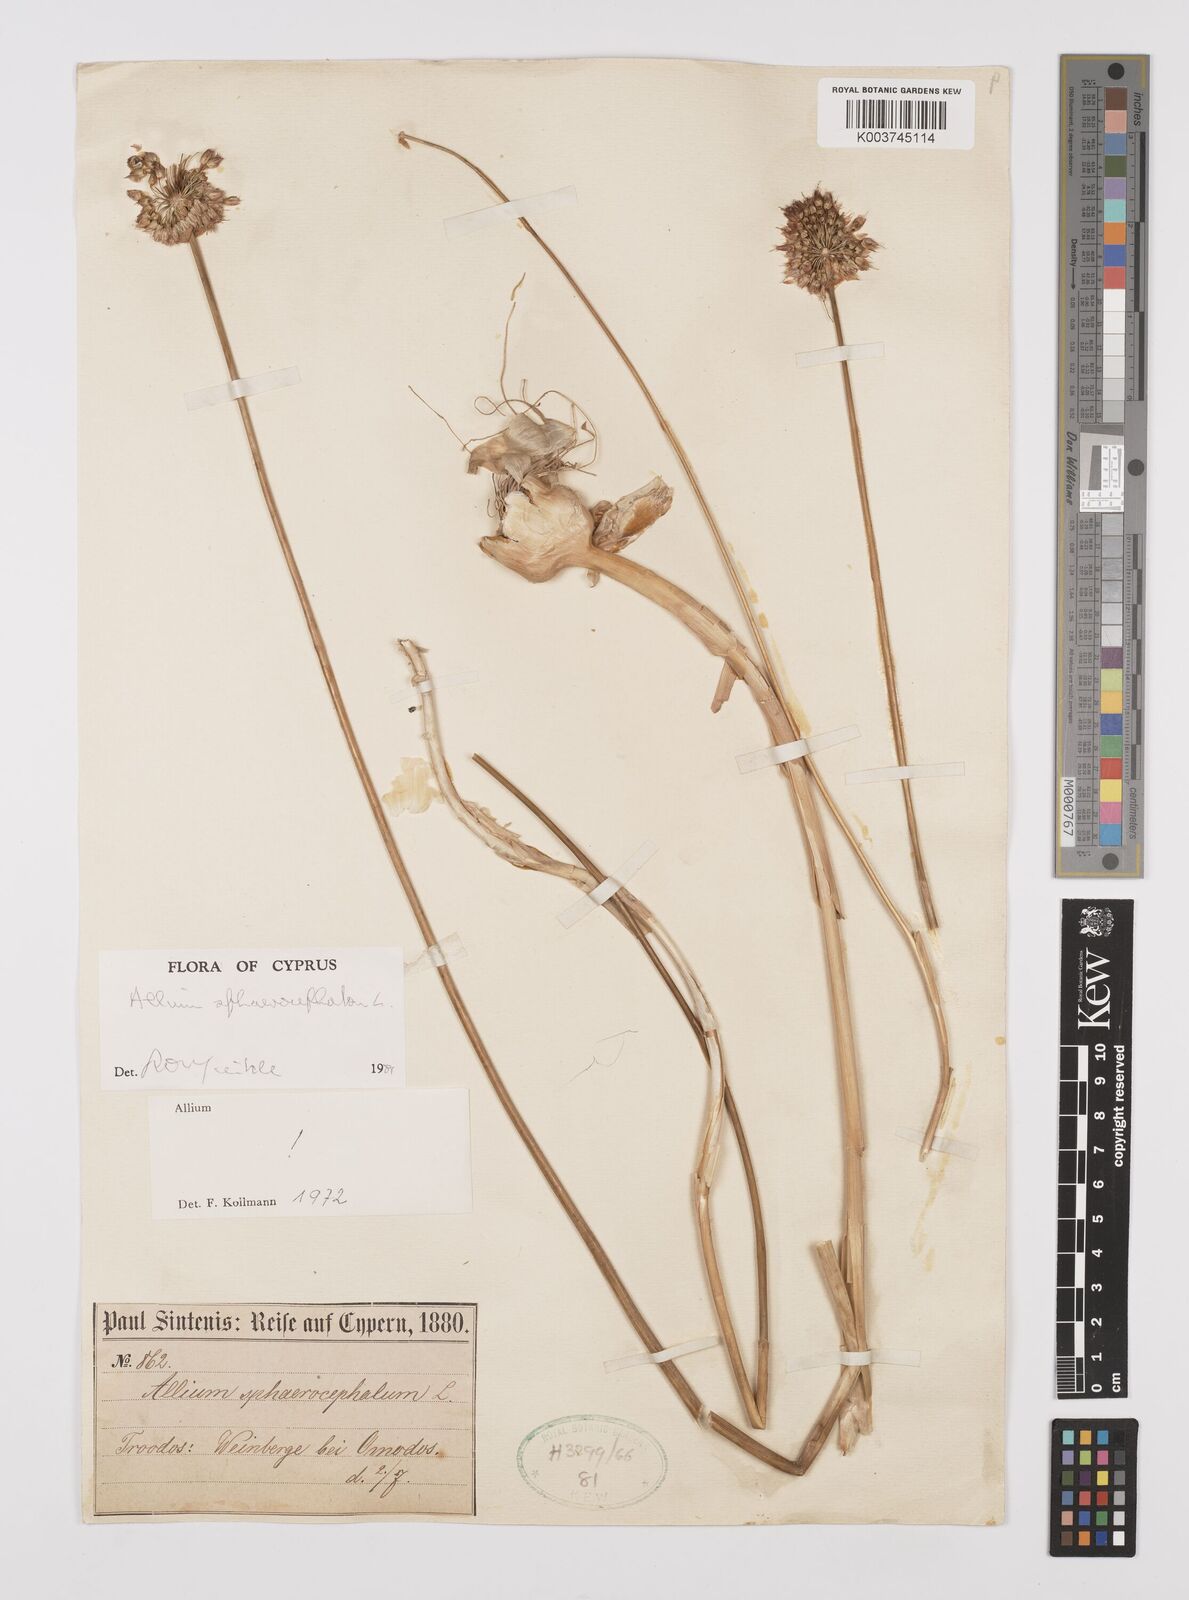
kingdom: Plantae
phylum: Tracheophyta
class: Liliopsida
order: Asparagales
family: Amaryllidaceae
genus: Allium
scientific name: Allium vineale
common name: Crow garlic
